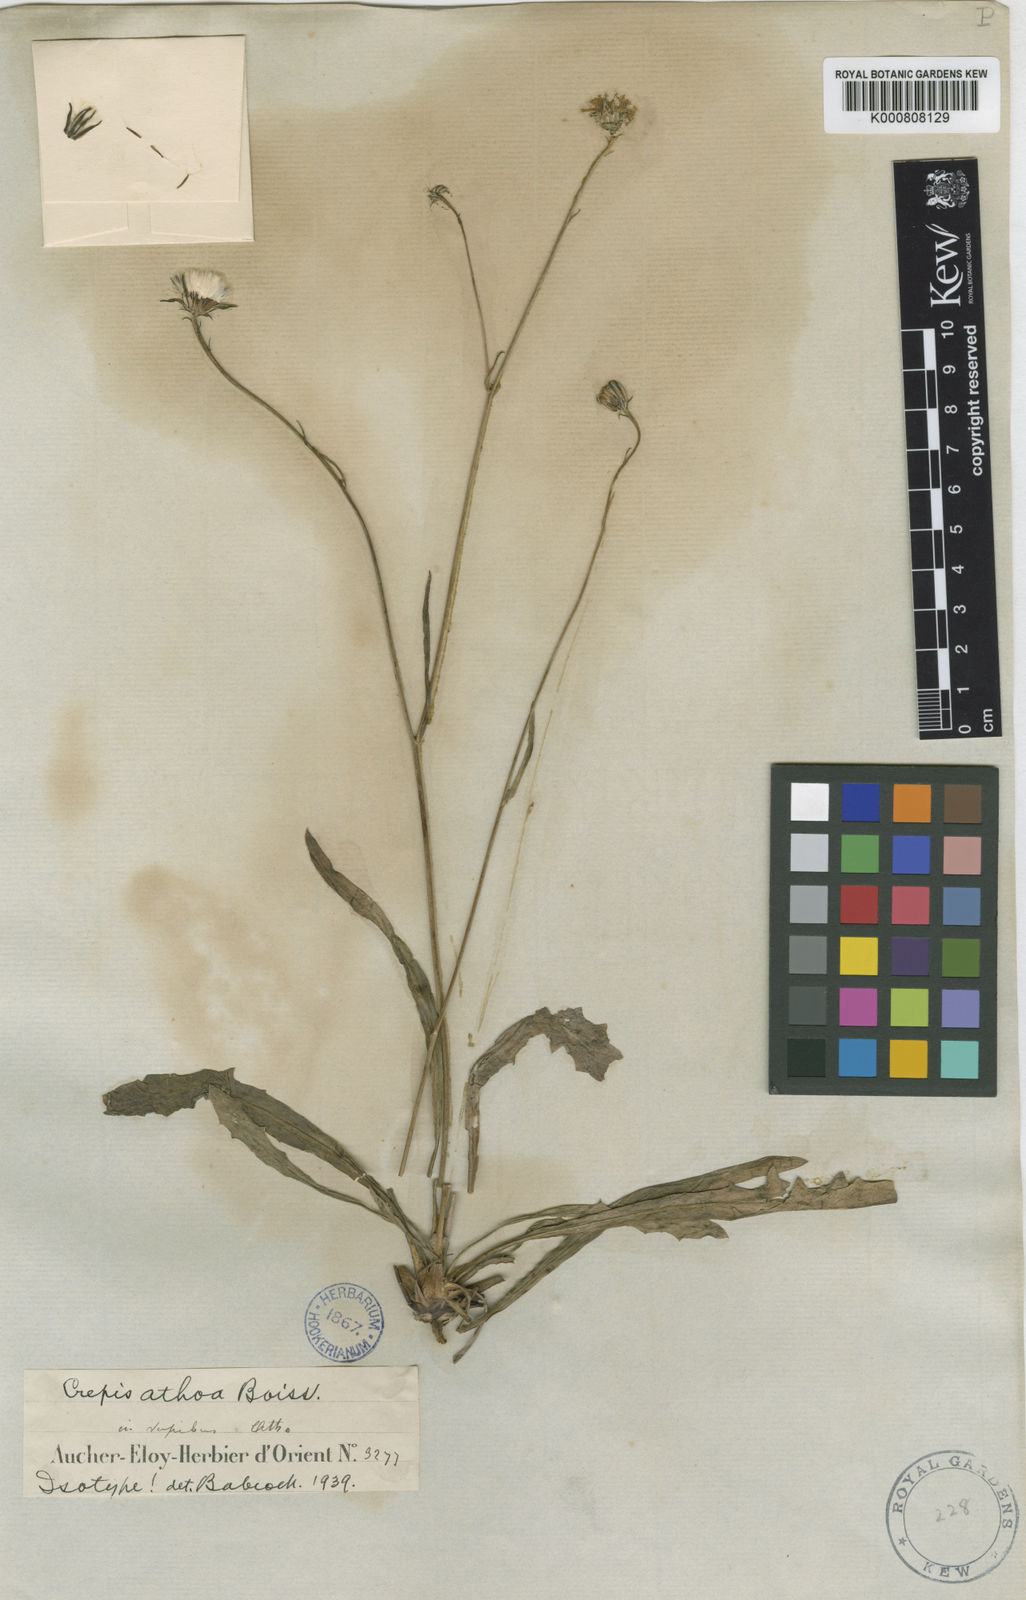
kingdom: Plantae
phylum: Tracheophyta
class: Magnoliopsida
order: Asterales
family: Asteraceae
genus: Crepis
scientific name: Crepis athoa
